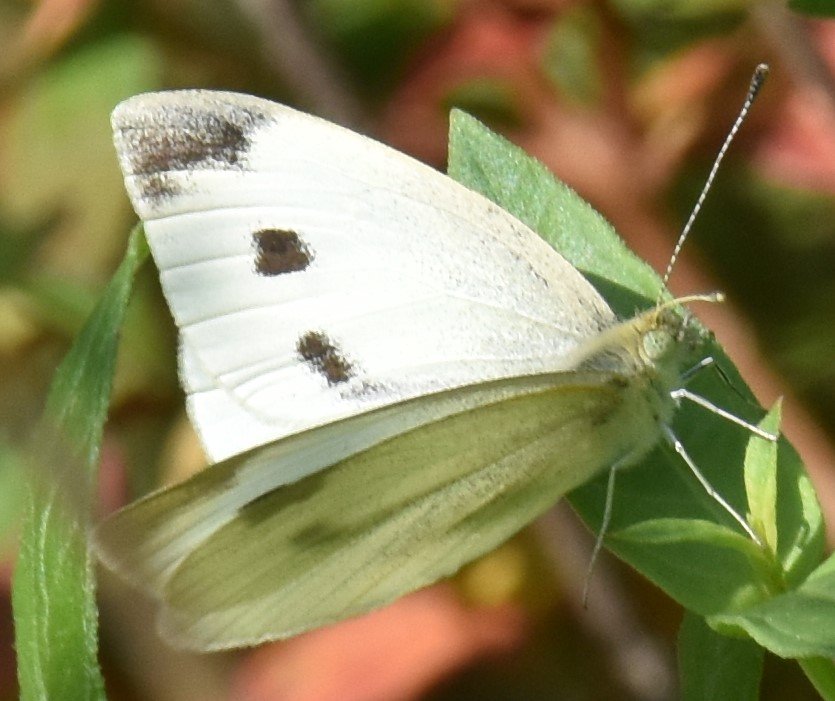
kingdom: Animalia
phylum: Arthropoda
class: Insecta
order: Lepidoptera
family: Pieridae
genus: Pieris
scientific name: Pieris rapae
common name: Cabbage White
